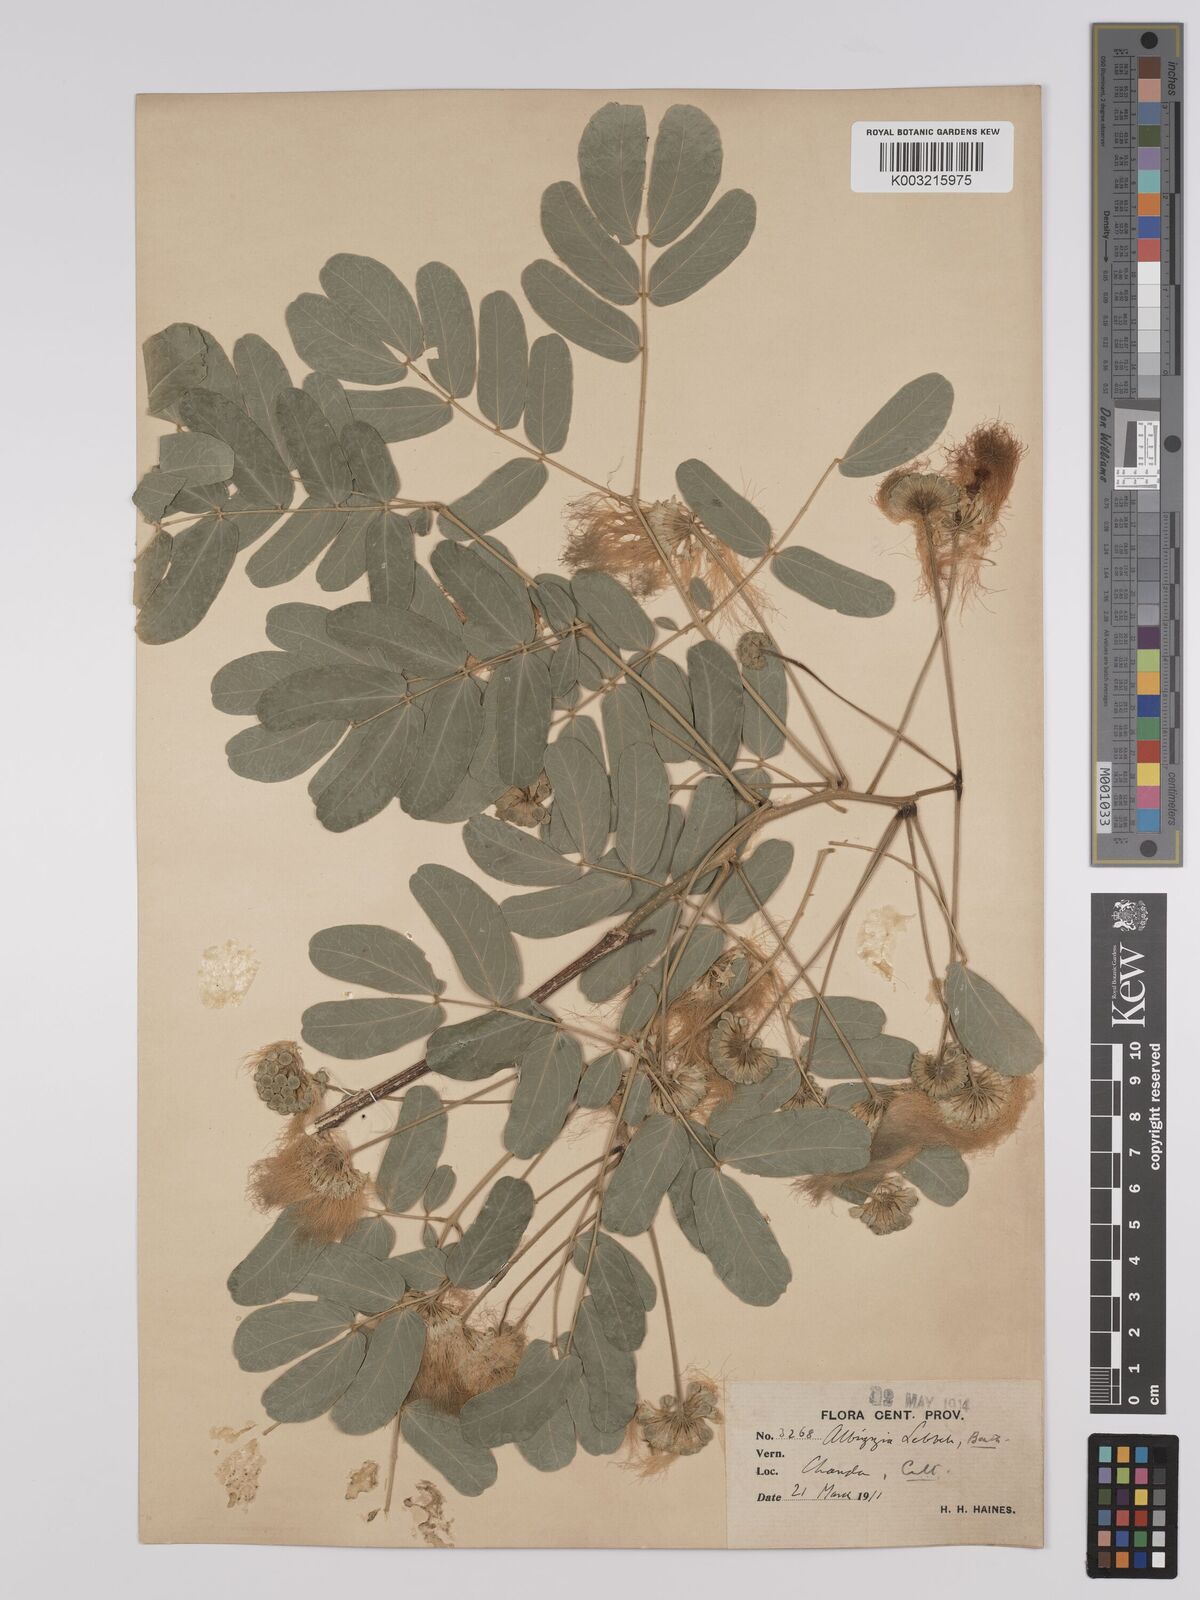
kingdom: Plantae
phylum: Tracheophyta
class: Magnoliopsida
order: Fabales
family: Fabaceae
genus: Albizia
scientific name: Albizia lebbeck
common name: Woman's tongue
